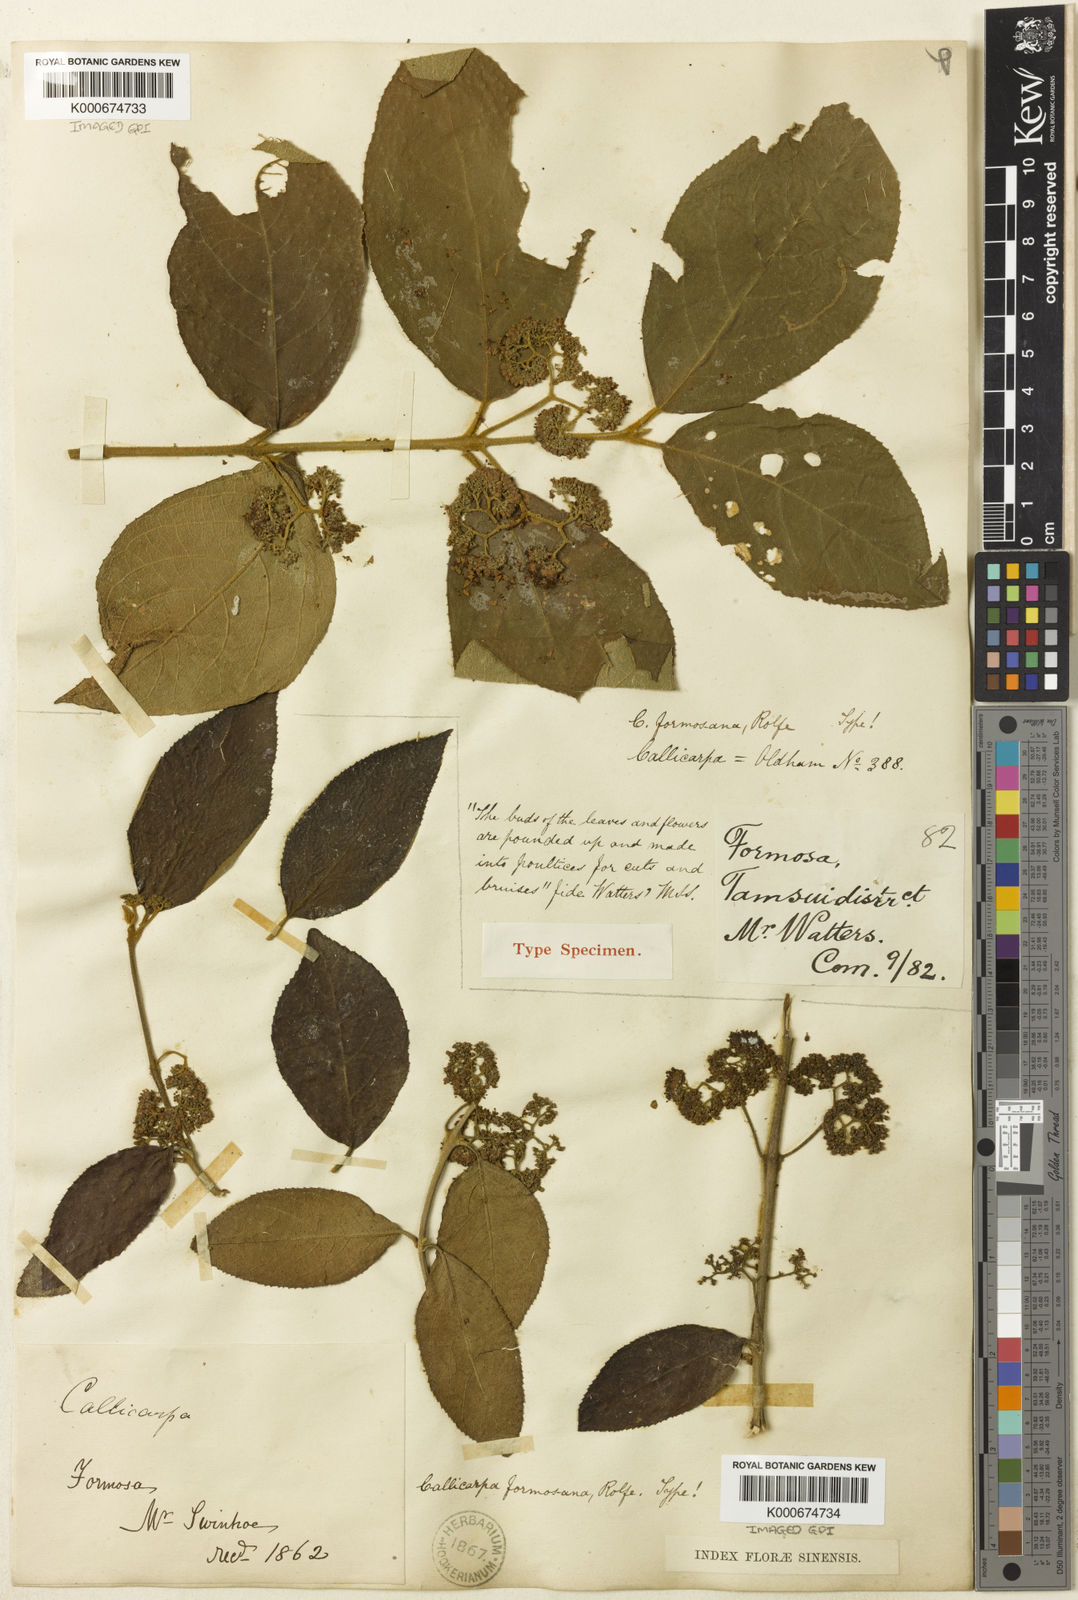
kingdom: Plantae
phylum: Tracheophyta
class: Magnoliopsida
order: Lamiales
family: Lamiaceae
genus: Callicarpa
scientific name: Callicarpa pedunculata
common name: Velvetleaf
